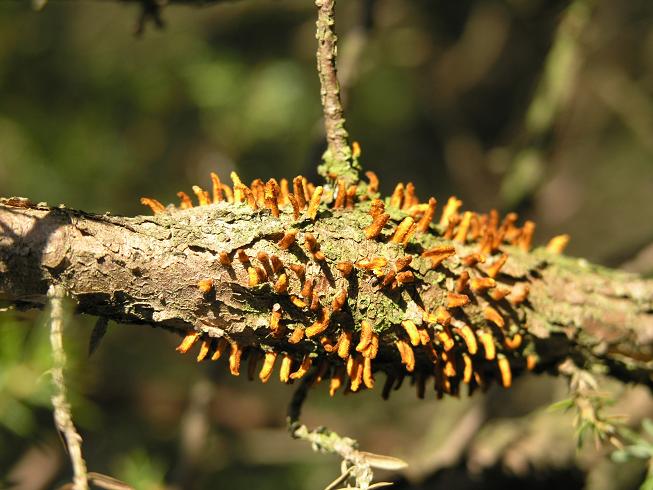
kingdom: Fungi
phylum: Basidiomycota
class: Pucciniomycetes
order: Pucciniales
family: Gymnosporangiaceae
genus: Gymnosporangium
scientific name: Gymnosporangium clavariiforme
